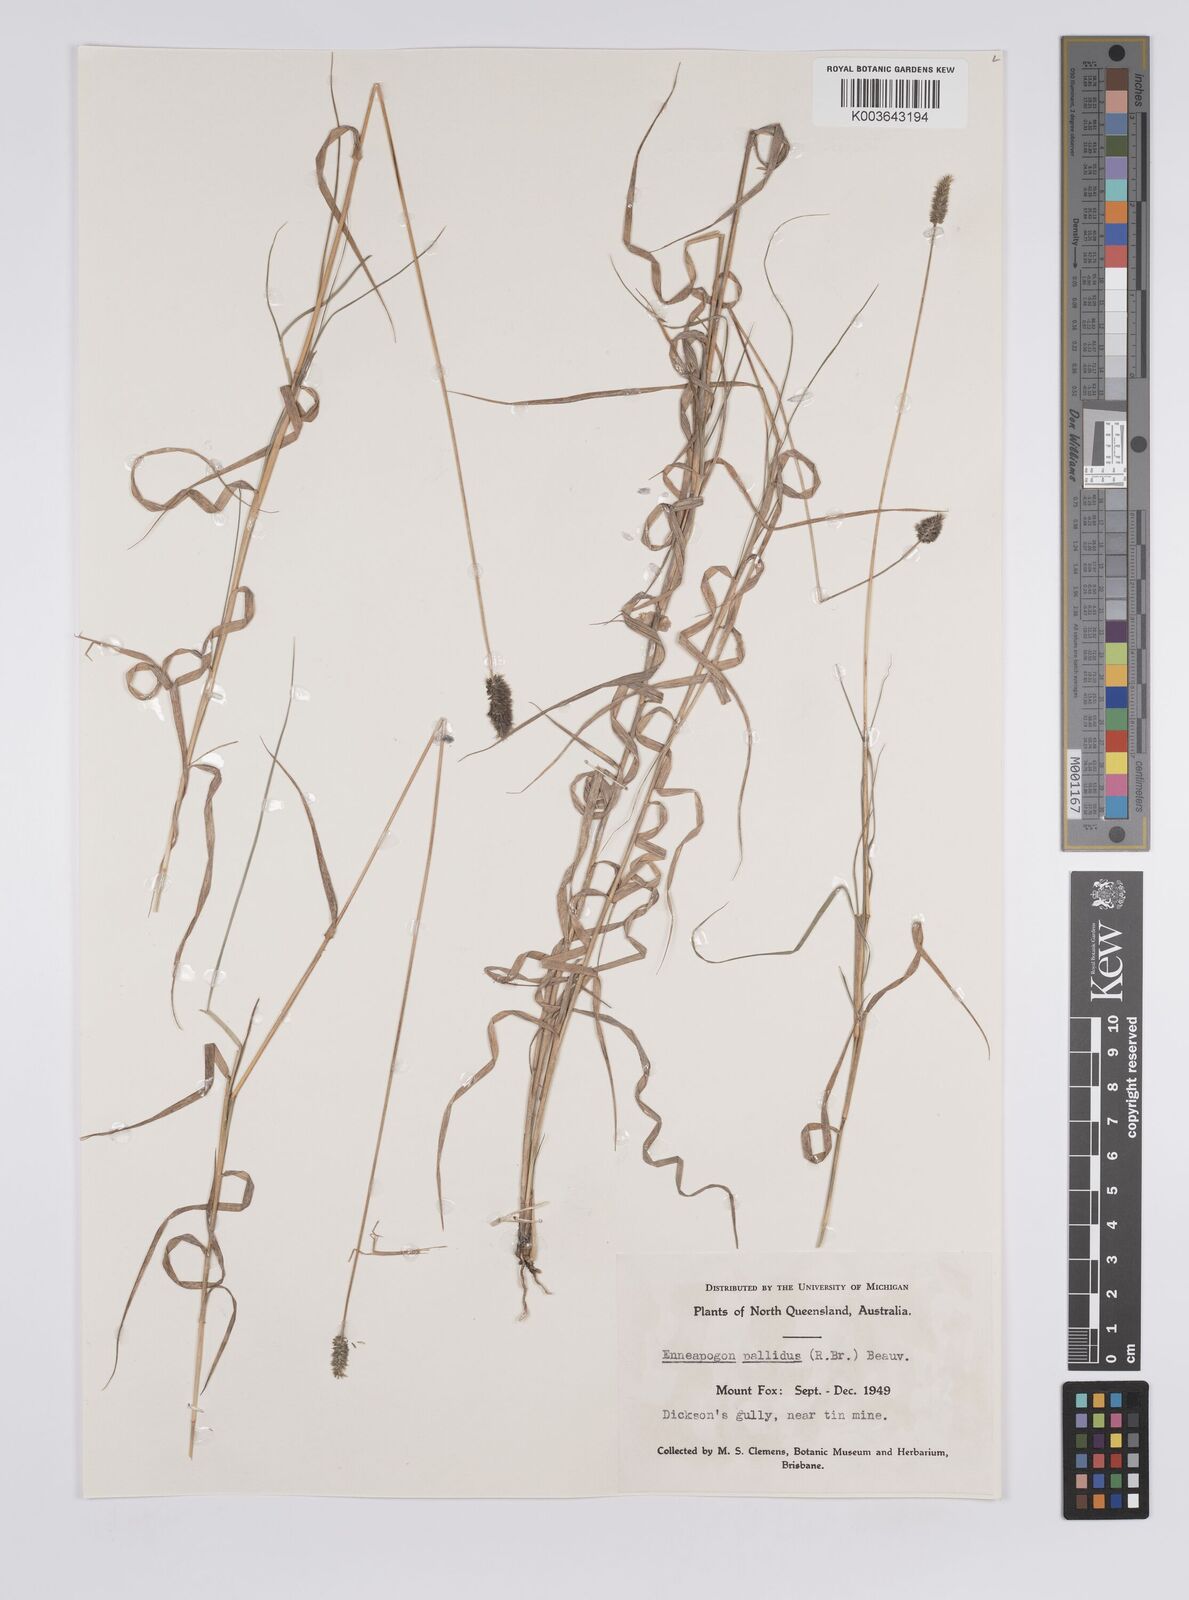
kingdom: Plantae
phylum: Tracheophyta
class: Liliopsida
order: Poales
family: Poaceae
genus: Enneapogon
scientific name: Enneapogon
